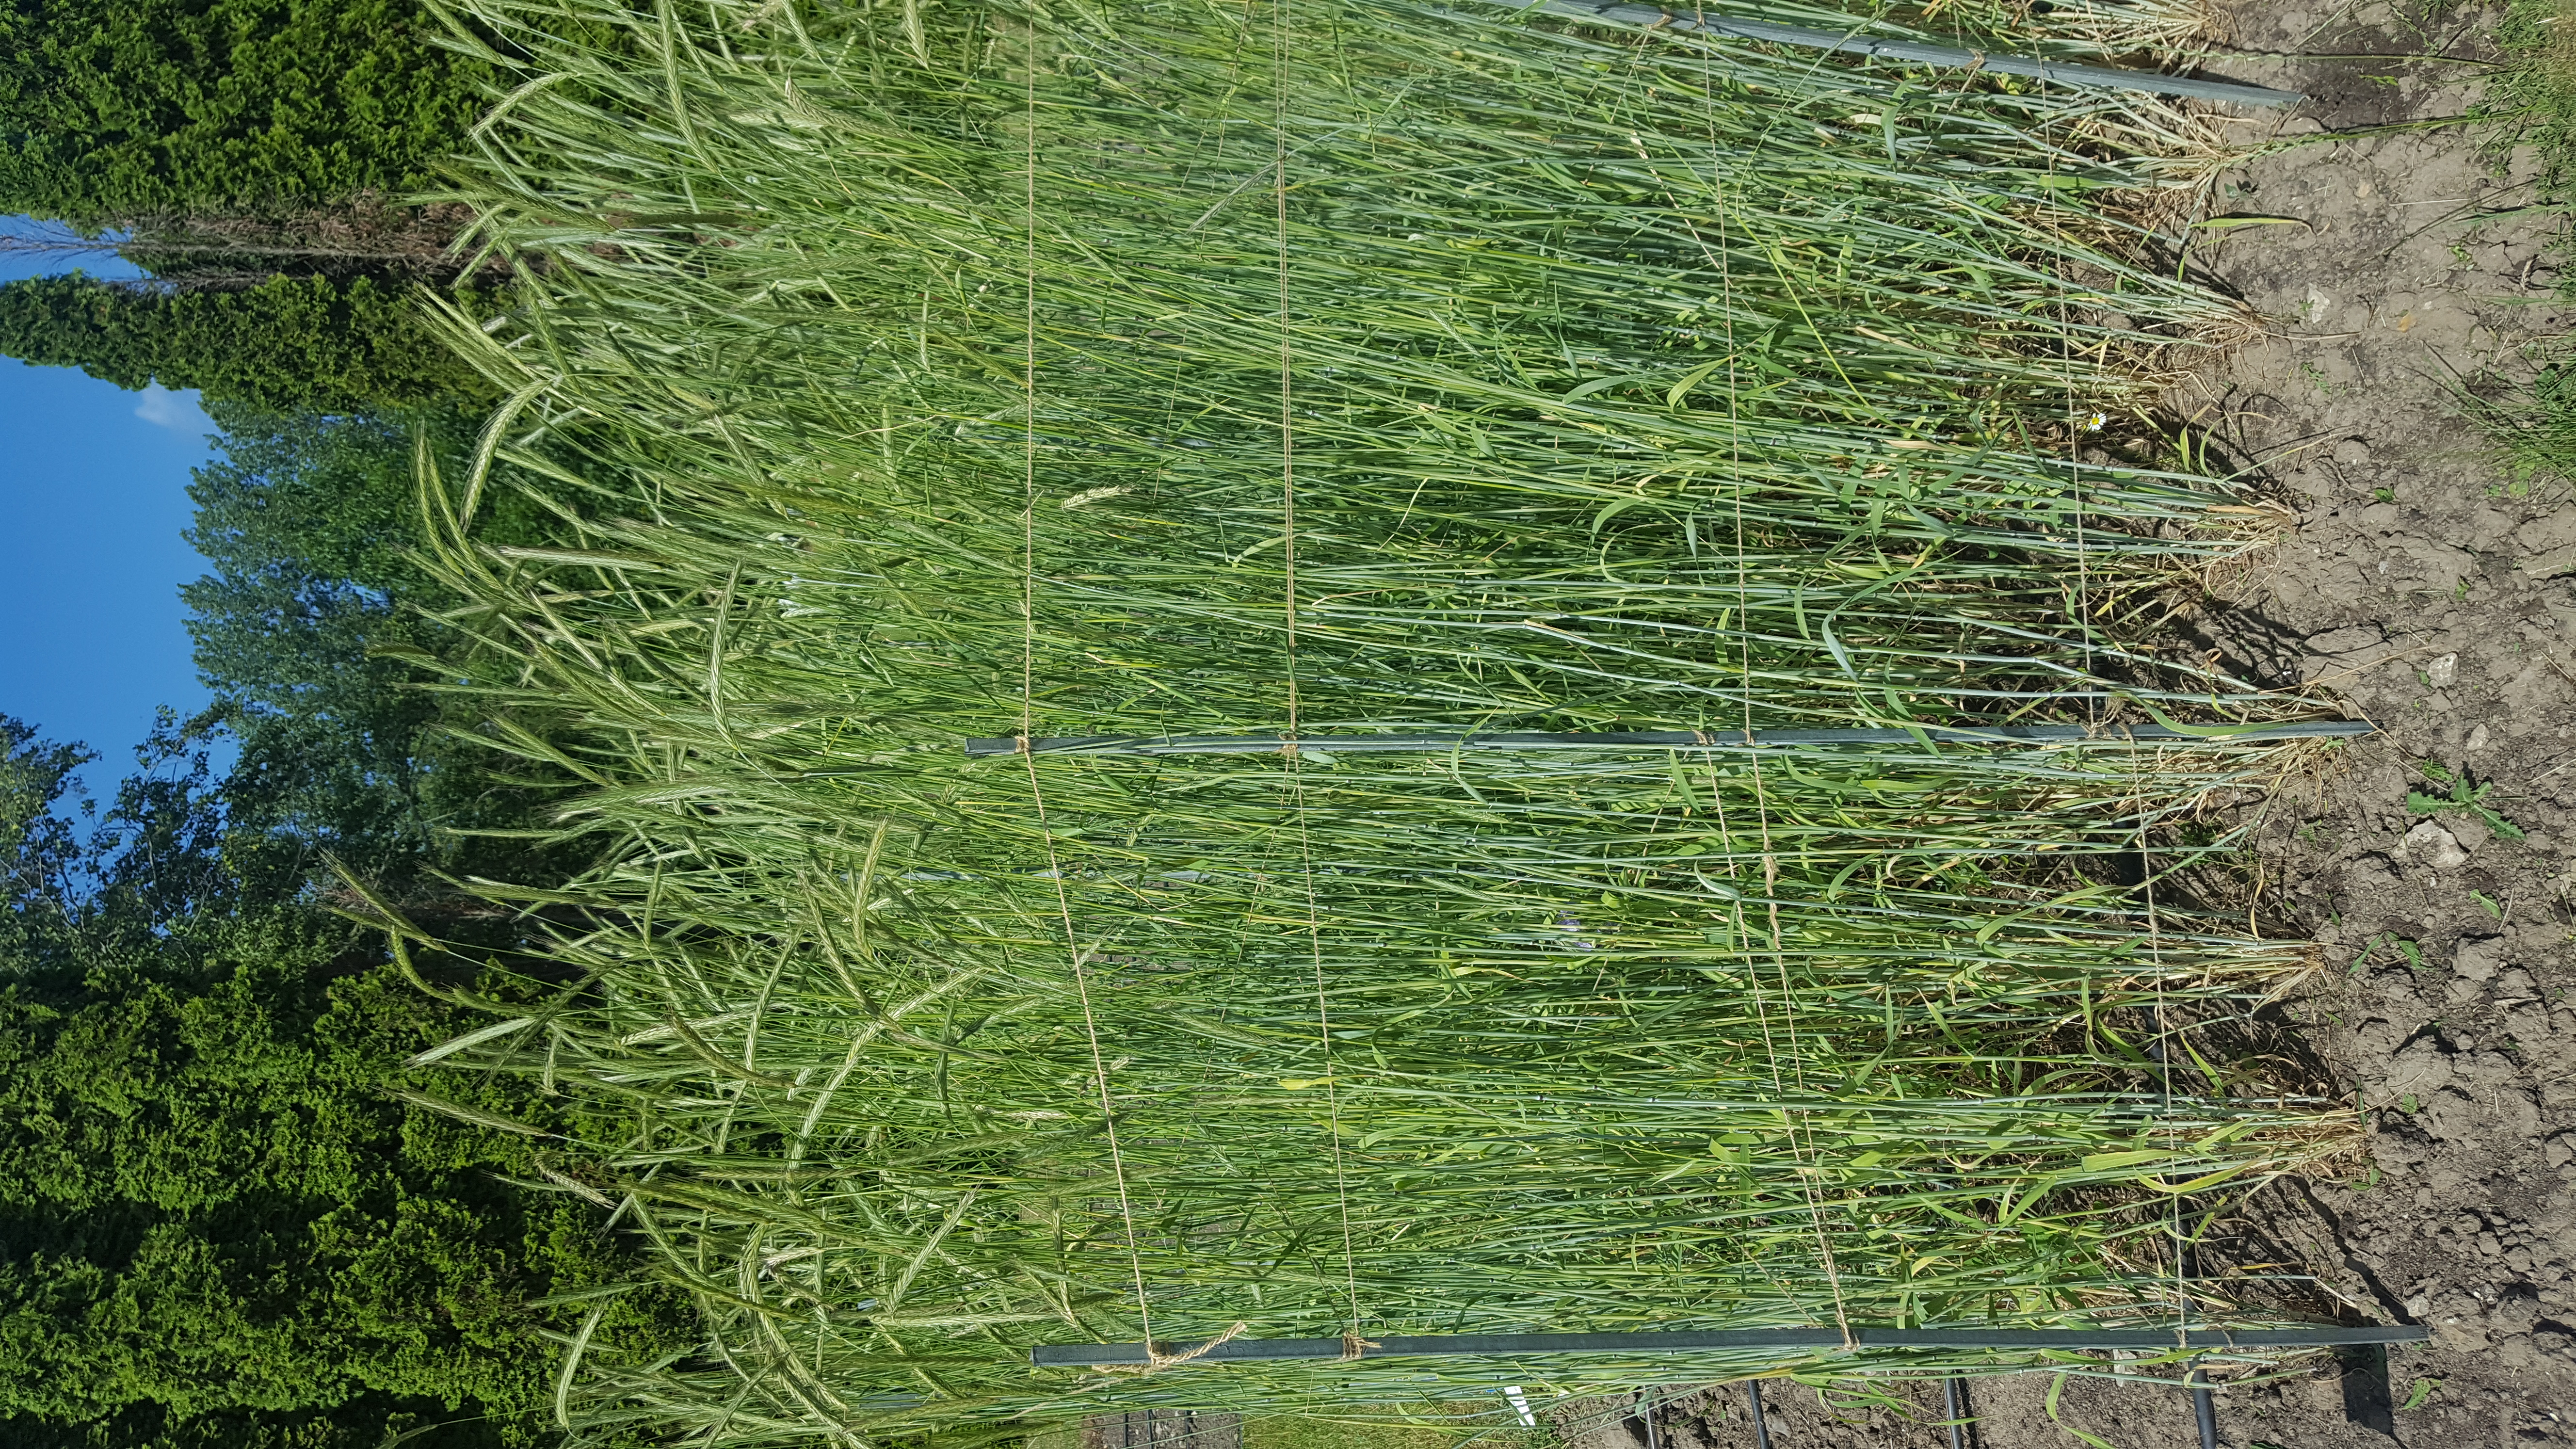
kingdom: Plantae
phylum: Tracheophyta
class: Liliopsida
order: Poales
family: Poaceae
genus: Secale
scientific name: Secale cereale
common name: Rye
